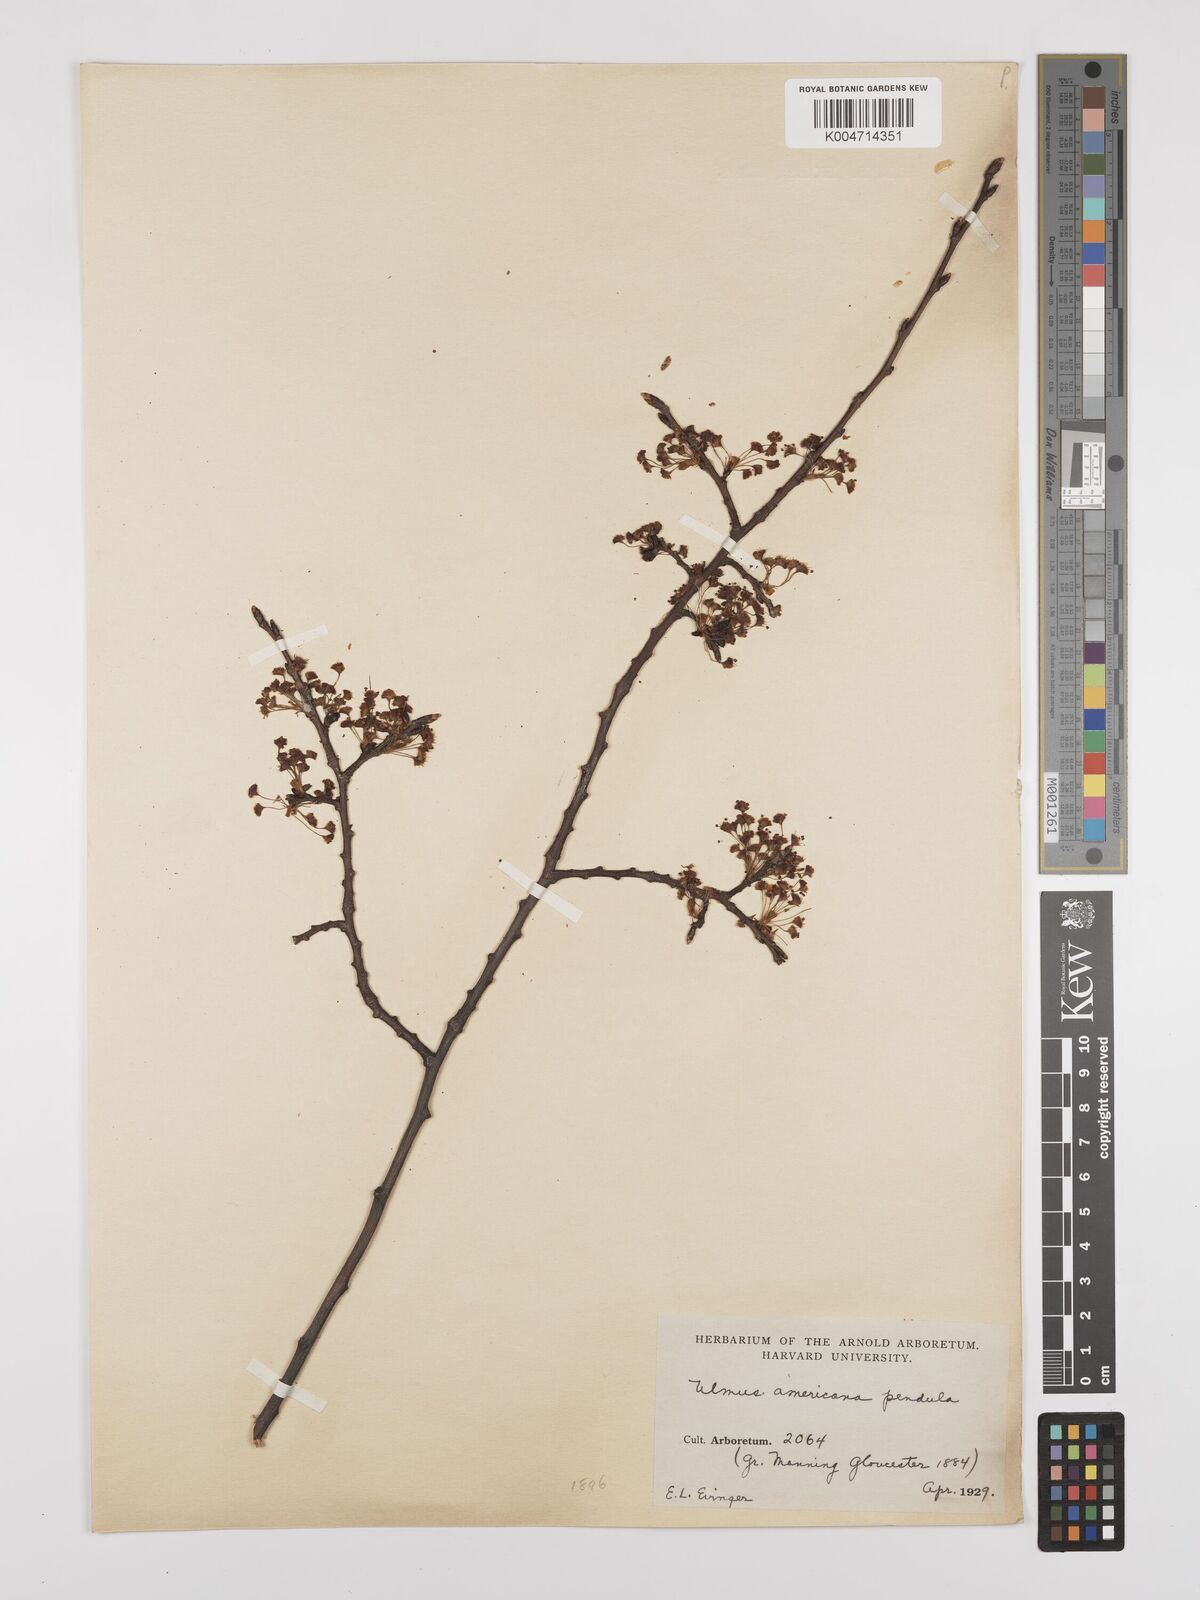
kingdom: Plantae
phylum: Tracheophyta
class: Magnoliopsida
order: Rosales
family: Ulmaceae
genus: Ulmus
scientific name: Ulmus americana
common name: American elm
